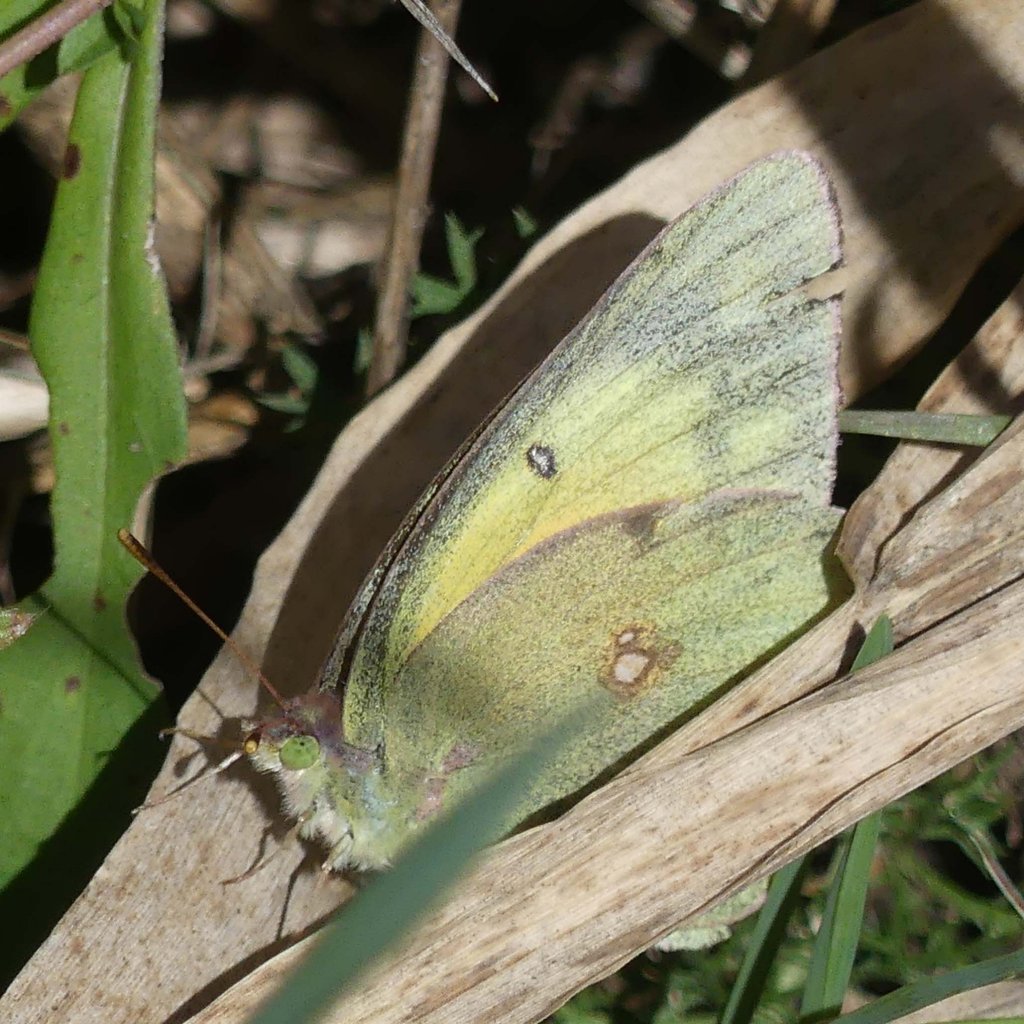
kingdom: Animalia
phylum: Arthropoda
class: Insecta
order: Lepidoptera
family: Pieridae
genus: Colias
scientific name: Colias philodice
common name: Clouded Sulphur
